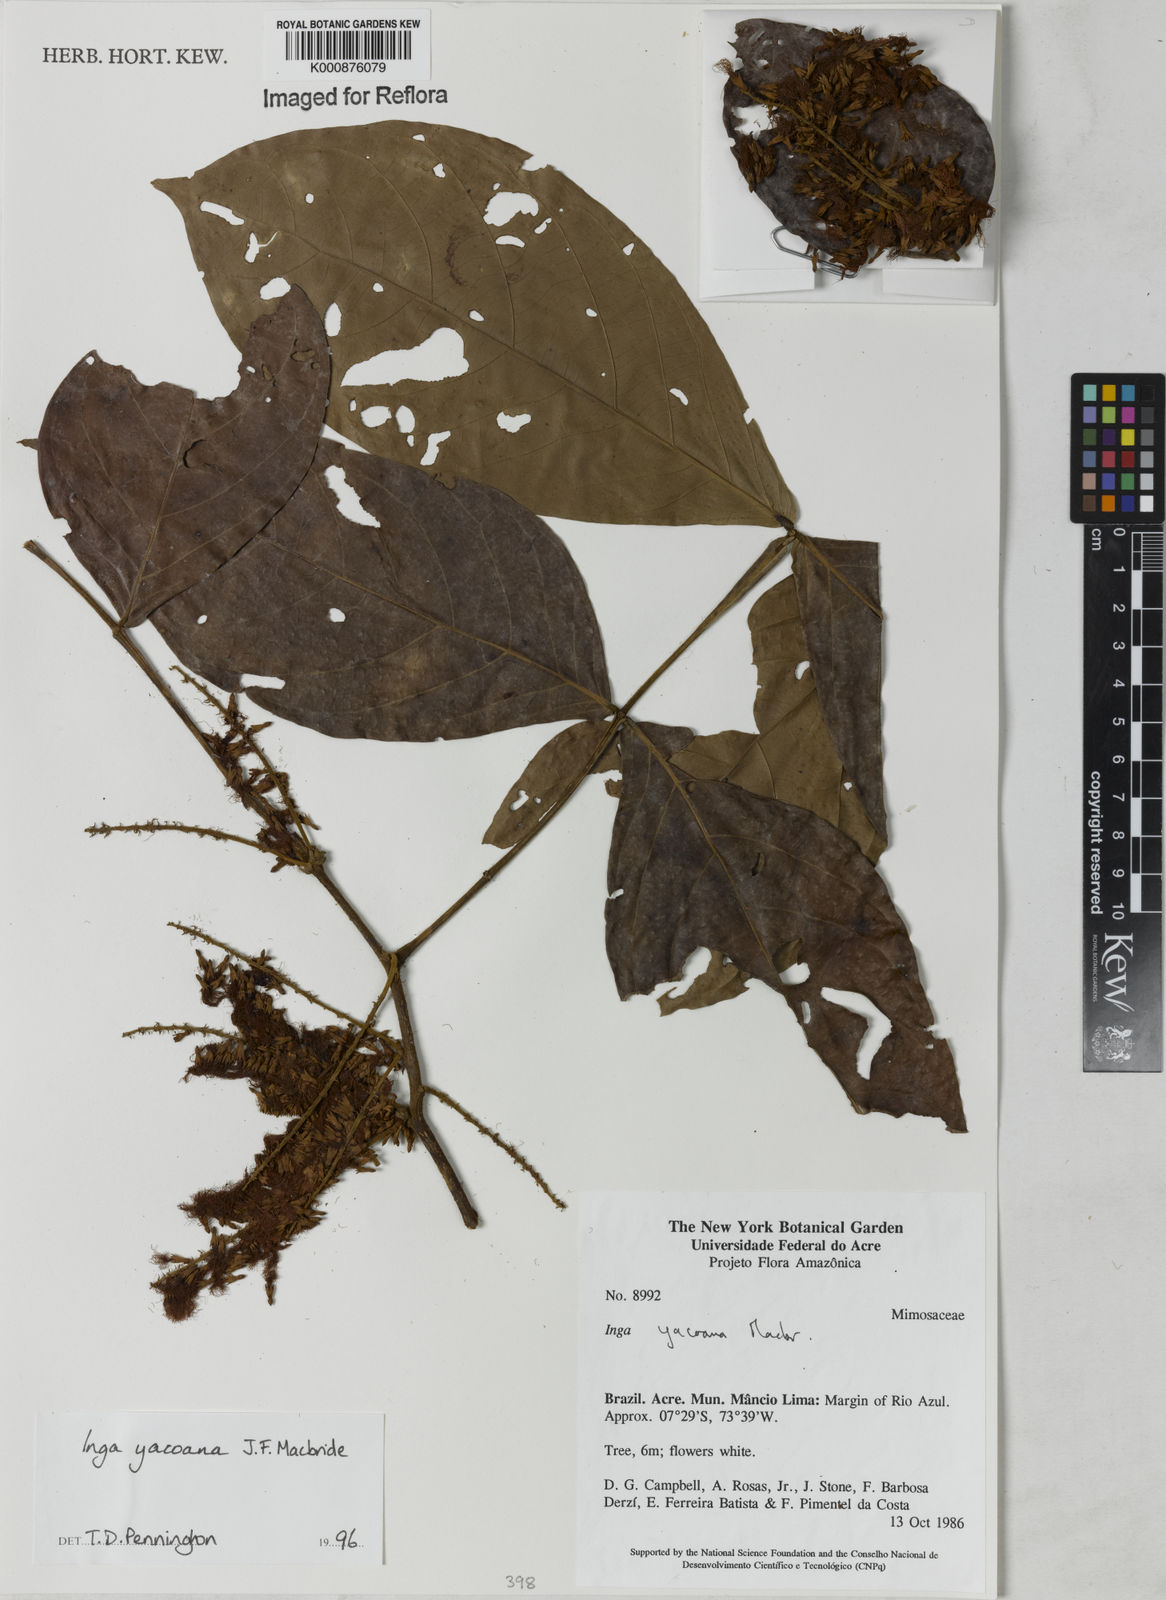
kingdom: Plantae
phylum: Tracheophyta
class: Magnoliopsida
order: Fabales
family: Fabaceae
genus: Inga
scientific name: Inga yacoana
